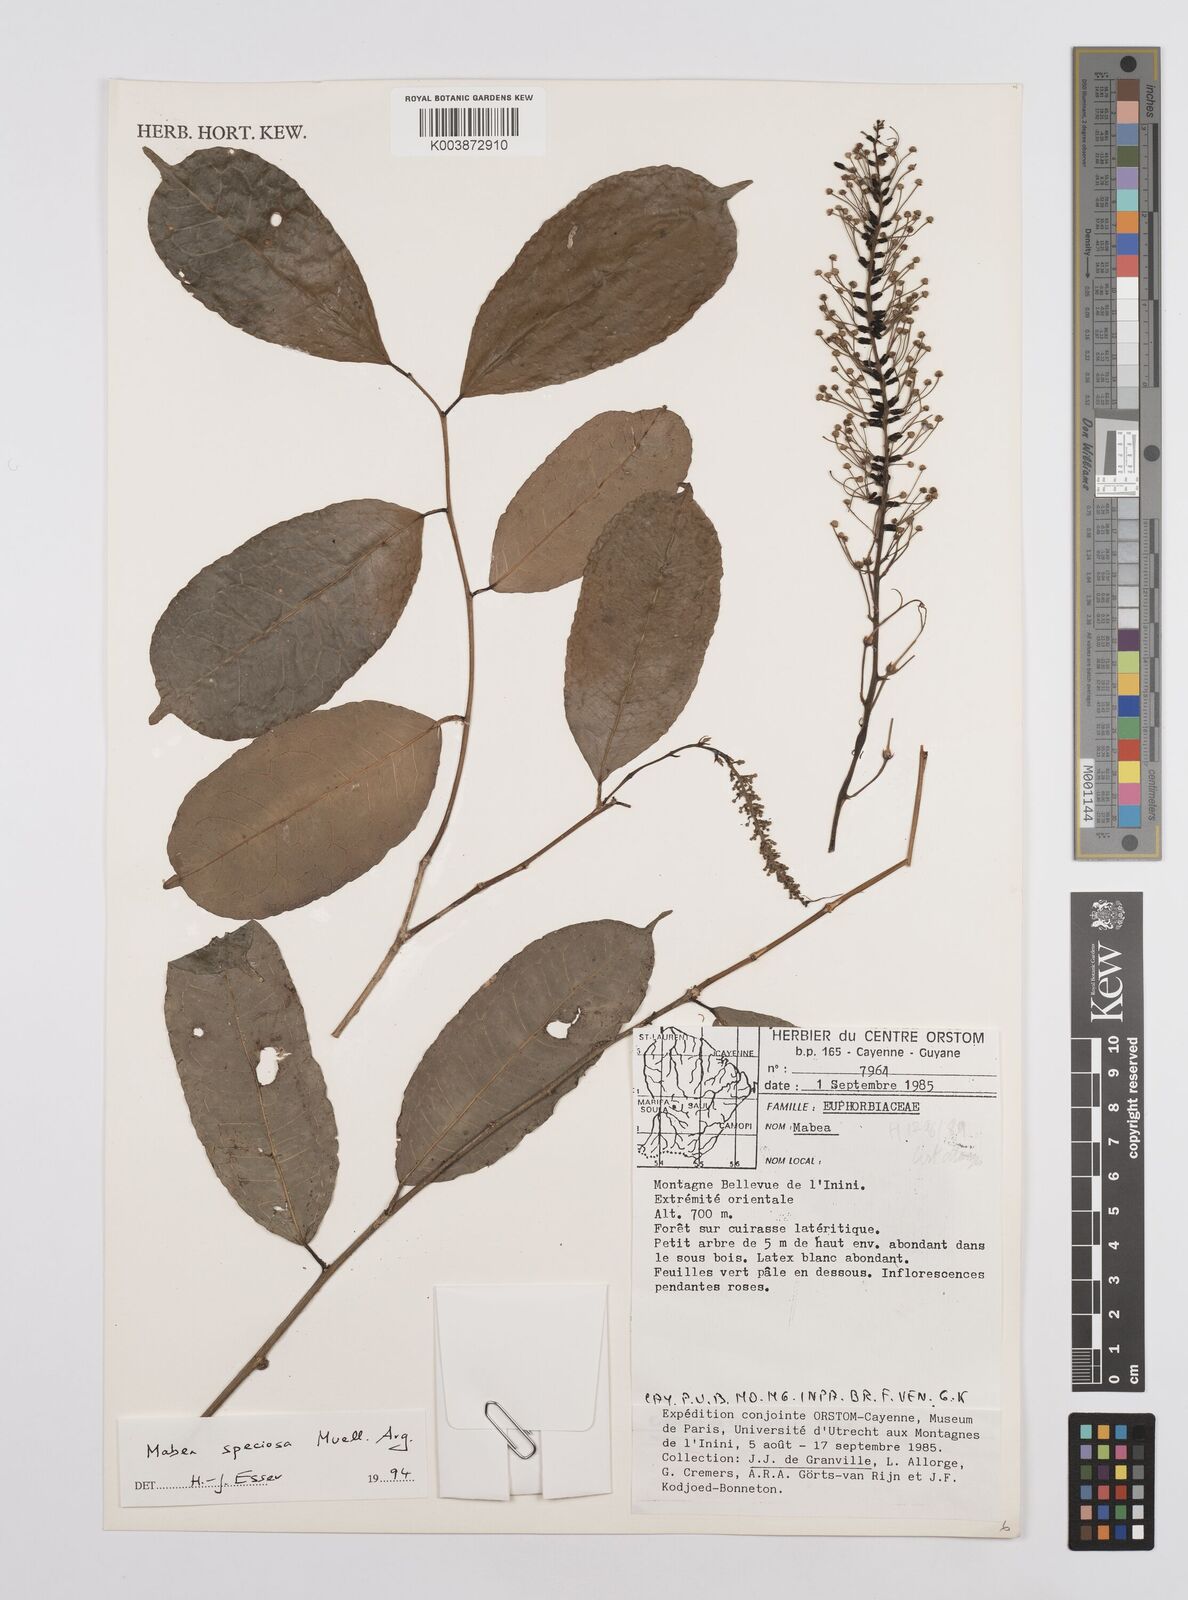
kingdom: Plantae
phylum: Tracheophyta
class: Magnoliopsida
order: Malpighiales
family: Euphorbiaceae
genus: Mabea
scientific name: Mabea speciosa
